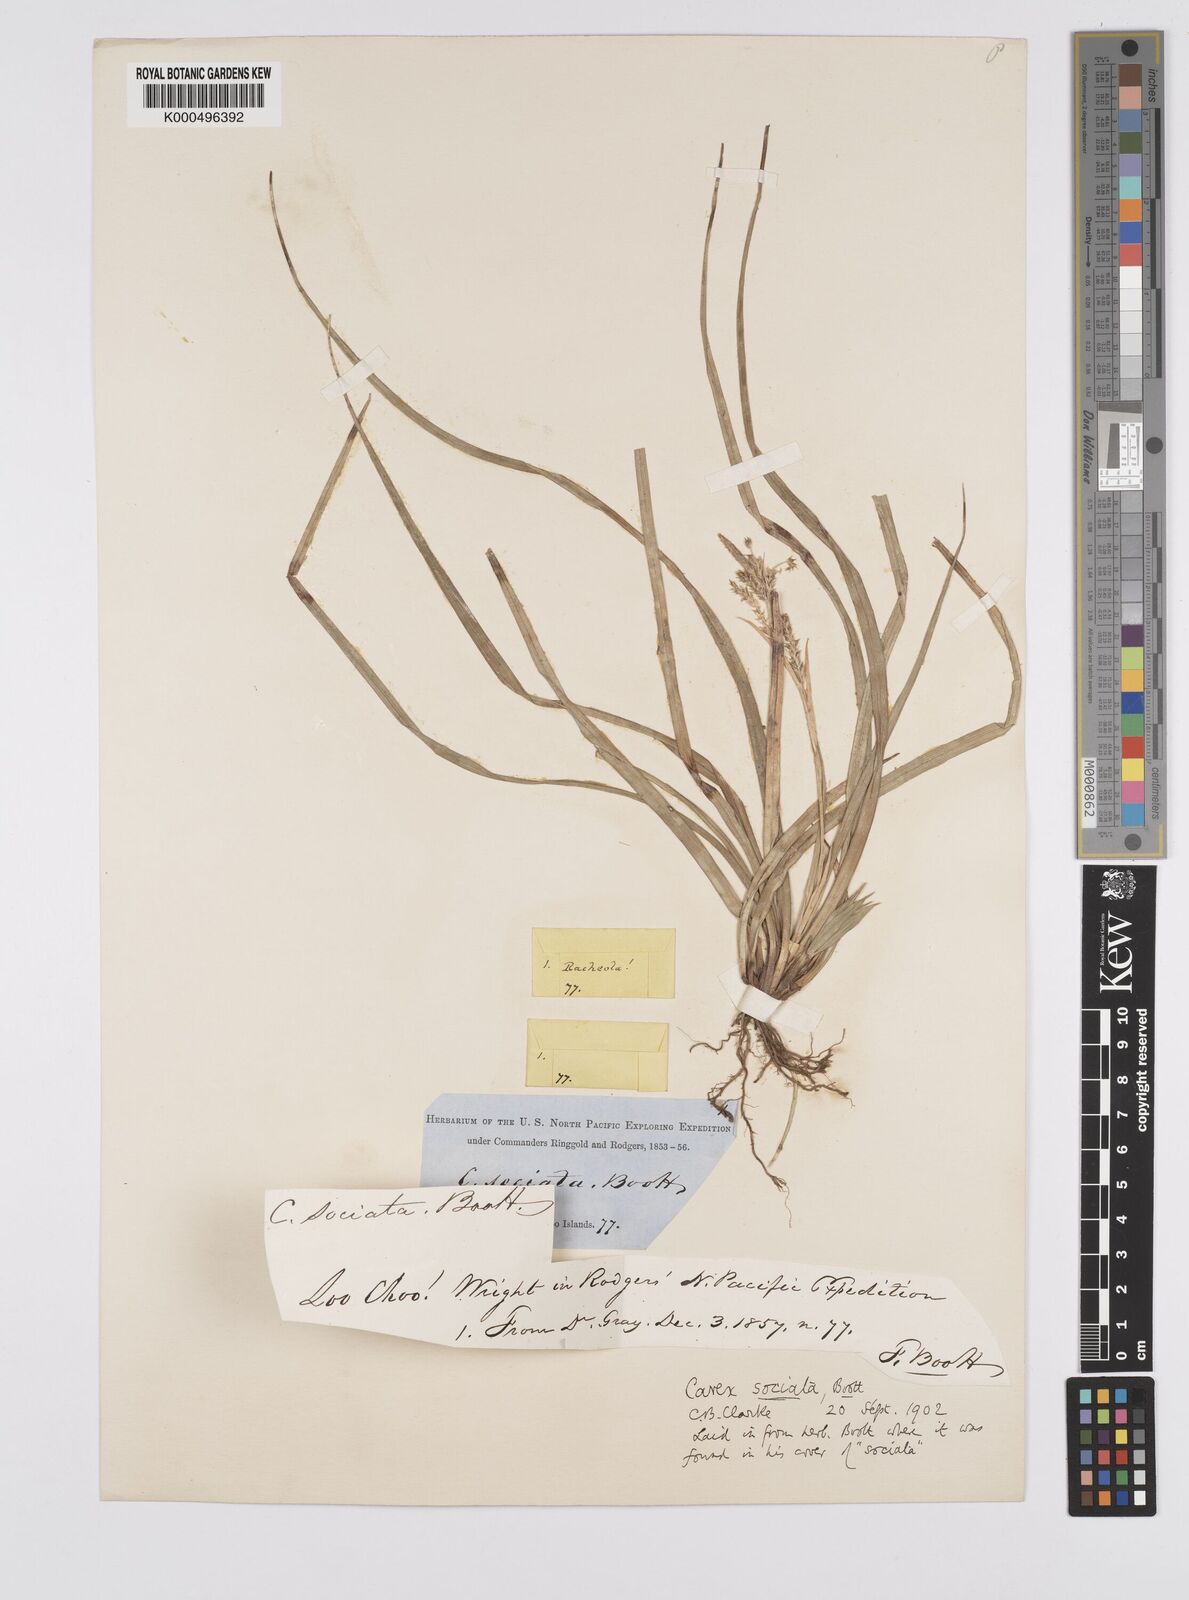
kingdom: Plantae
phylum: Tracheophyta
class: Liliopsida
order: Poales
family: Cyperaceae
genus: Carex
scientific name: Carex chinensis
